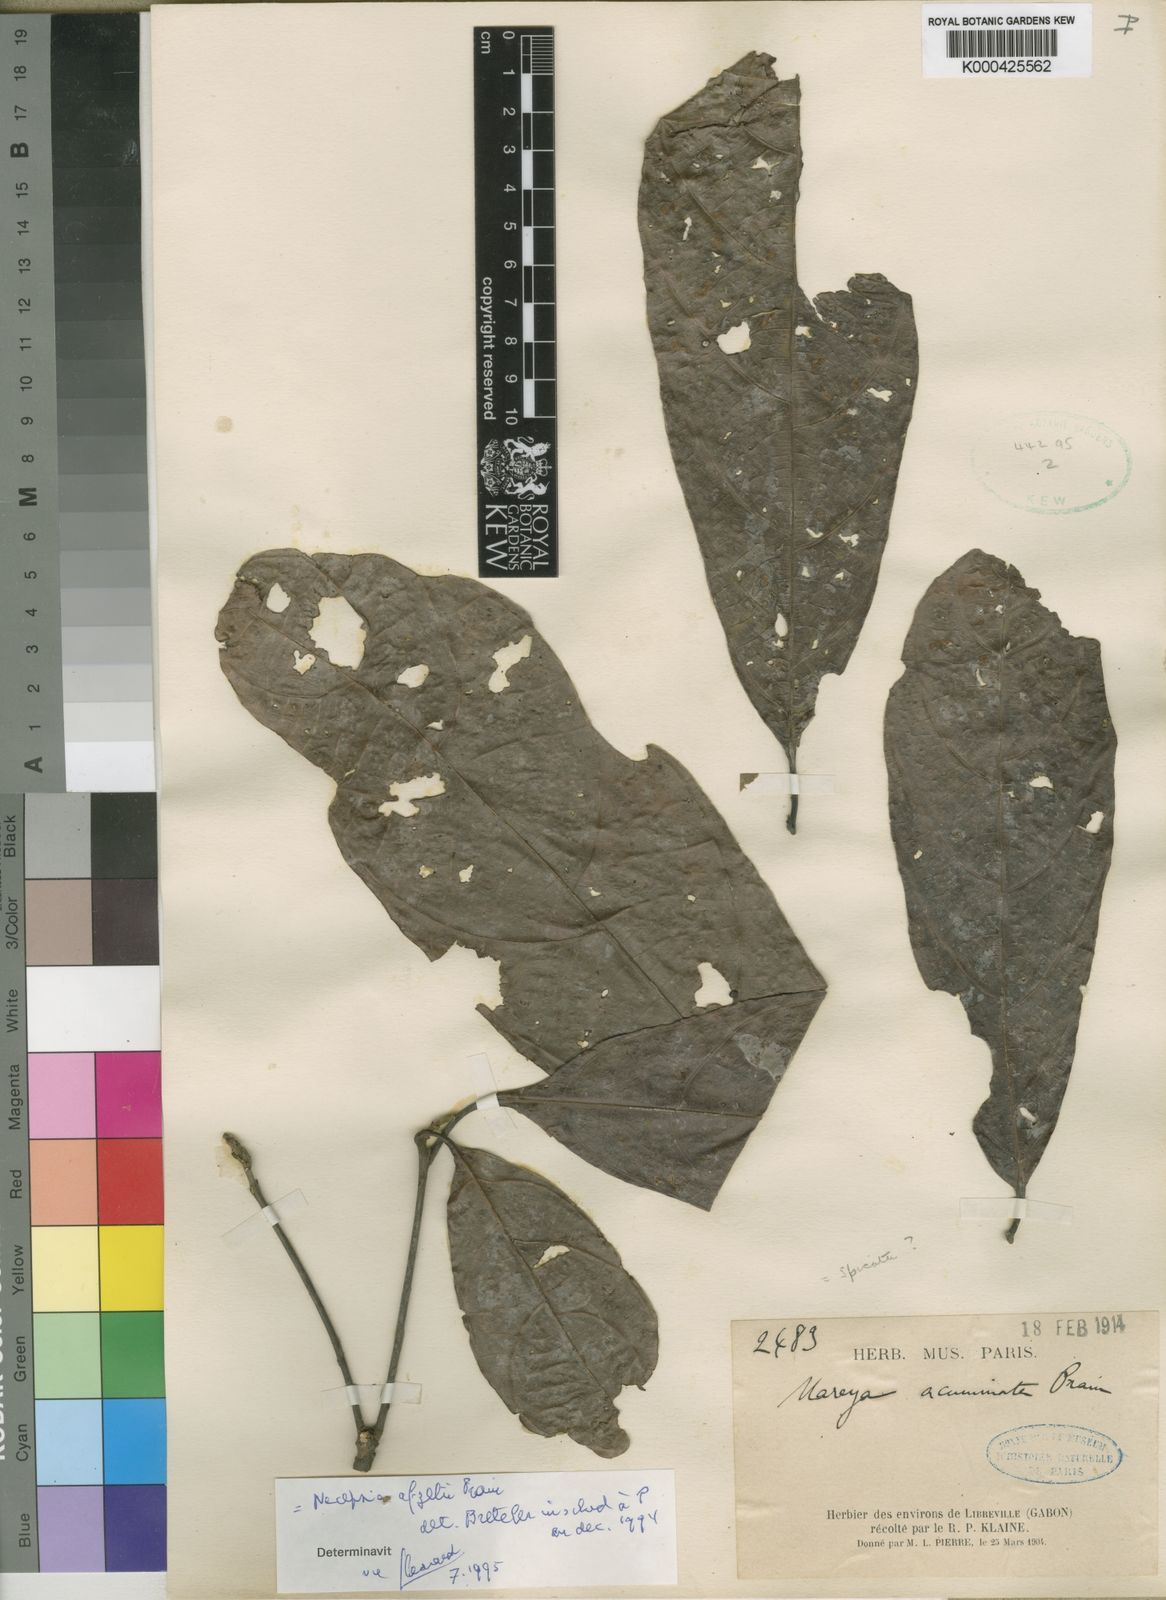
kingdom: Plantae
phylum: Tracheophyta
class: Magnoliopsida
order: Malpighiales
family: Euphorbiaceae
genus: Mareya
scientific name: Mareya acuminata
